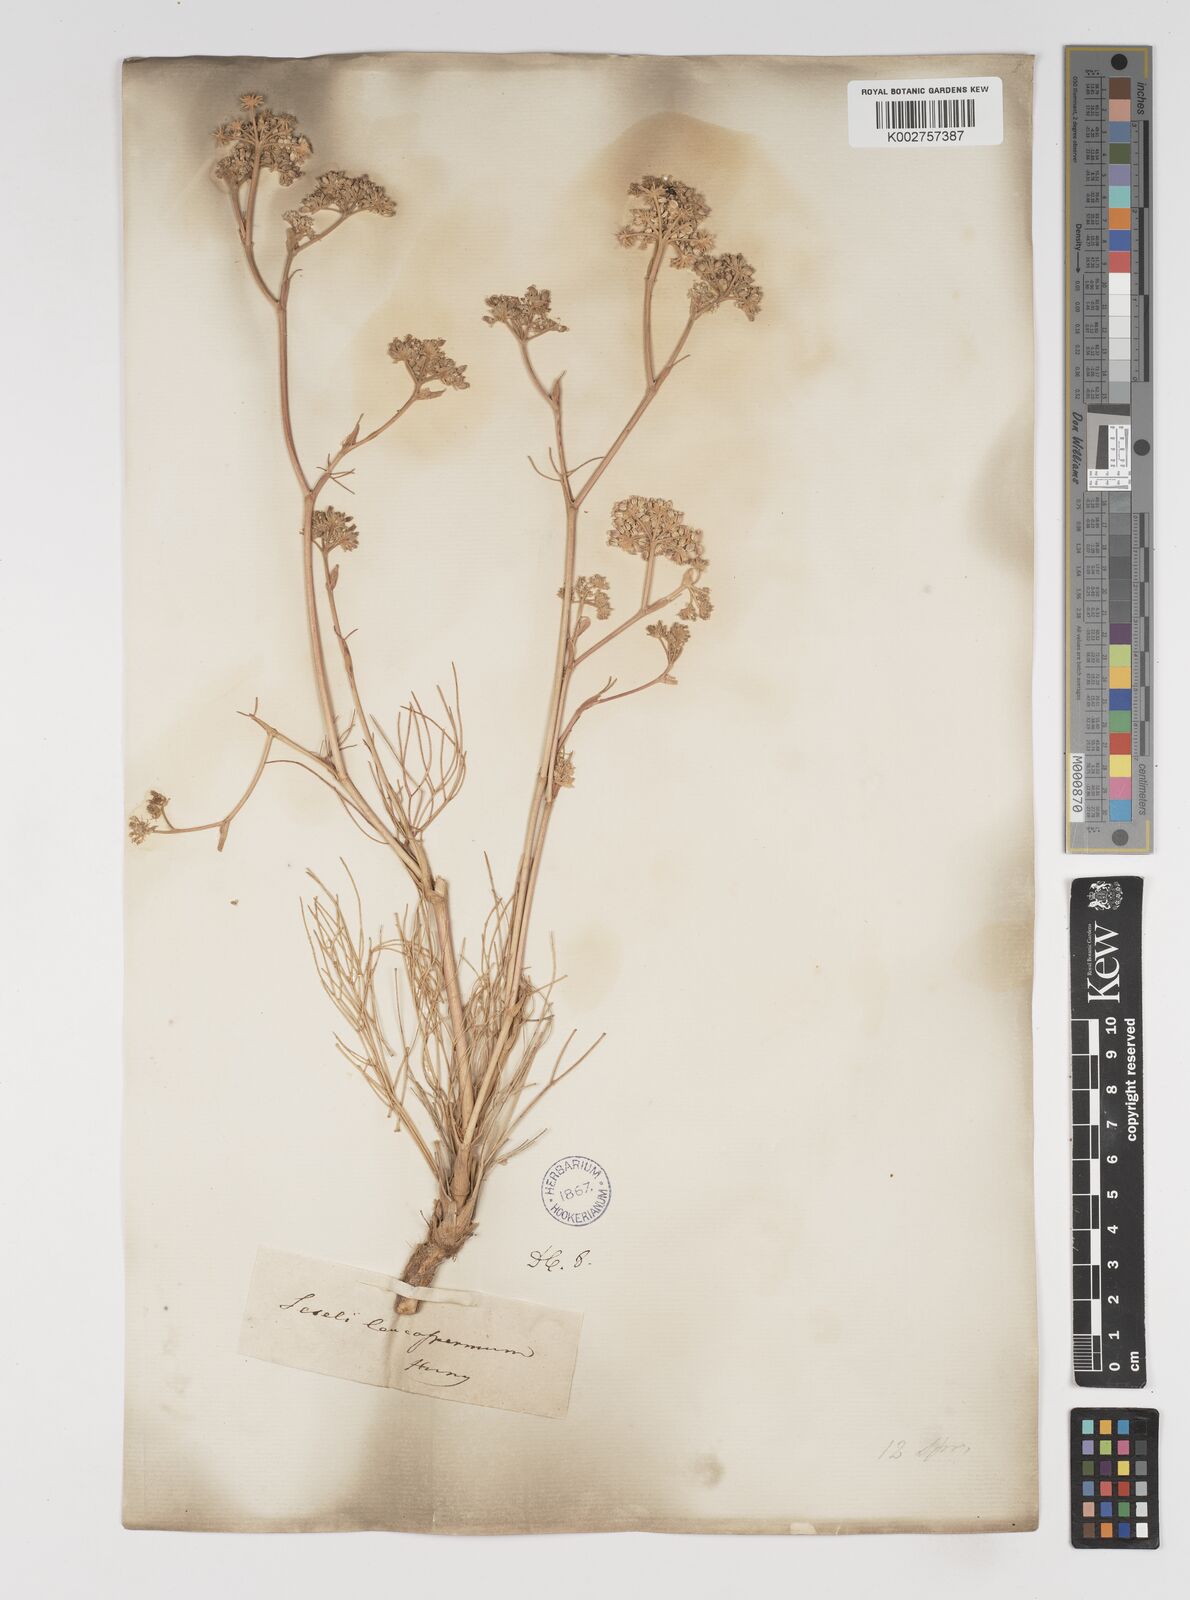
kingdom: Plantae
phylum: Tracheophyta
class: Magnoliopsida
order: Apiales
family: Apiaceae
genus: Seseli
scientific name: Seseli leucospermum
